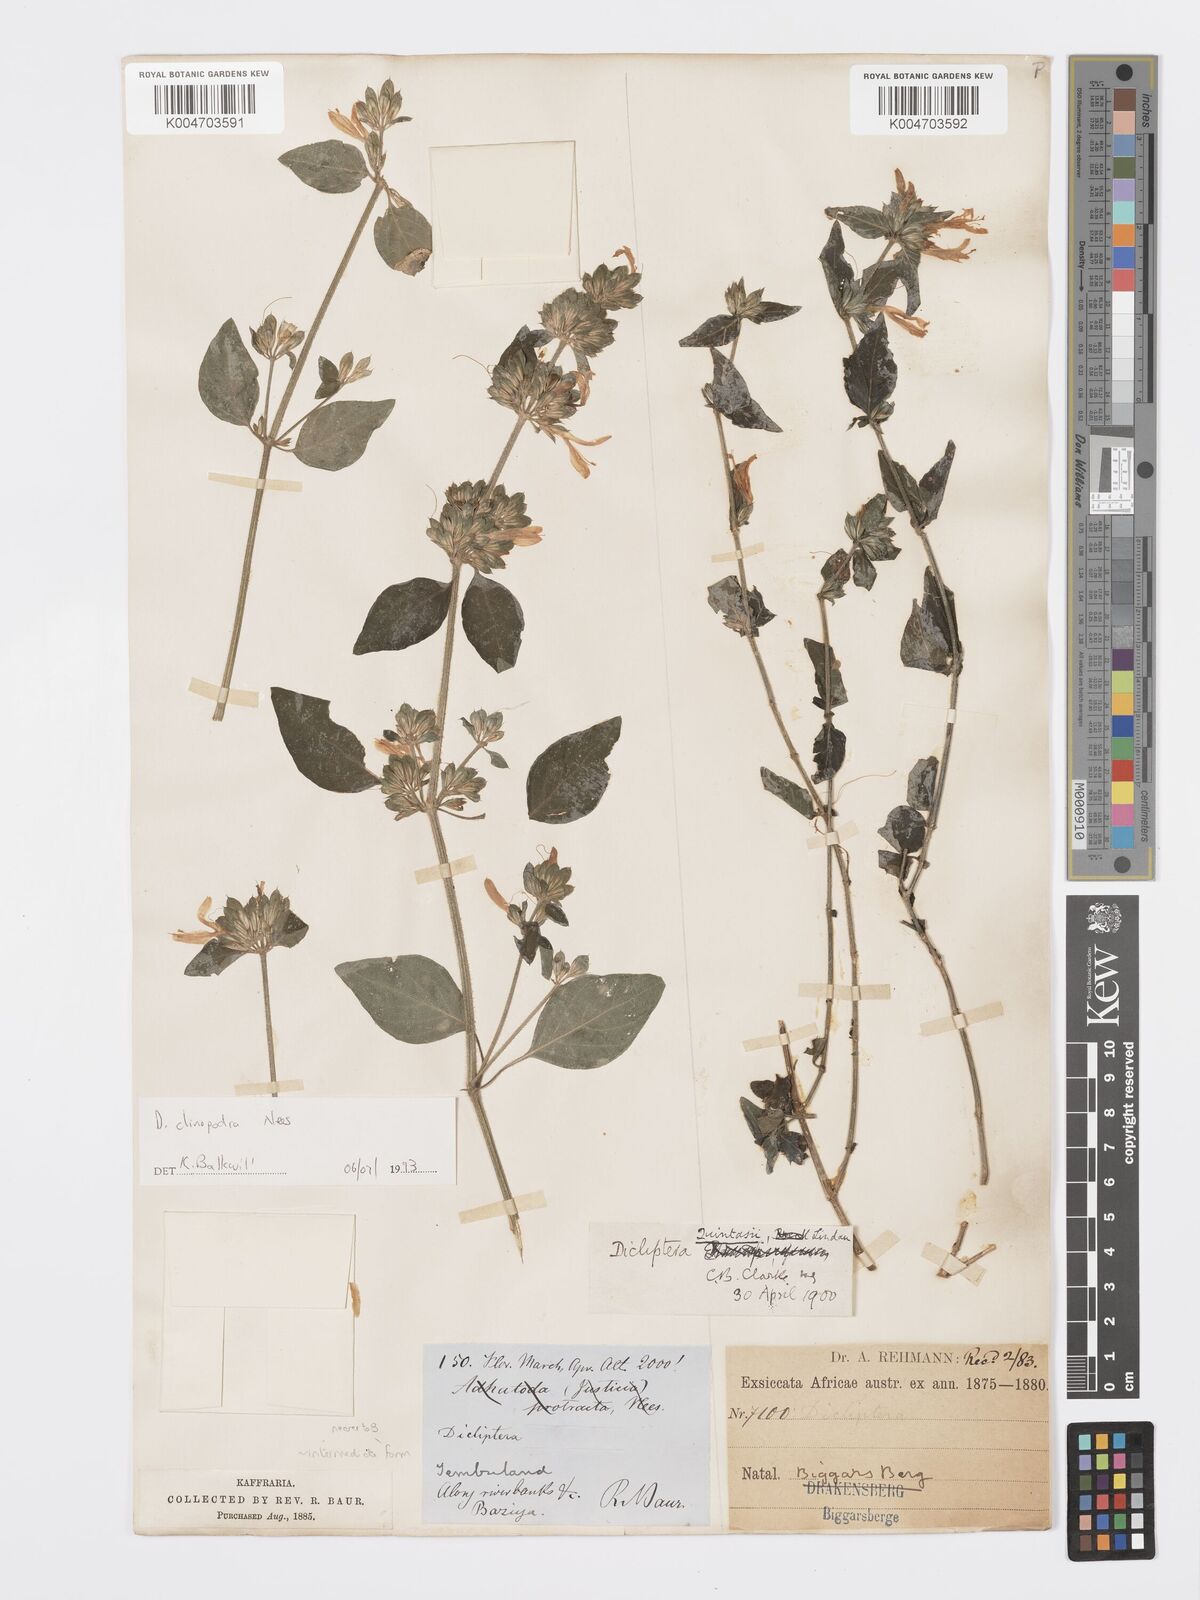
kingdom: Plantae
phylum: Tracheophyta
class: Magnoliopsida
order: Lamiales
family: Acanthaceae
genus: Dicliptera
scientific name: Dicliptera clinopodia
